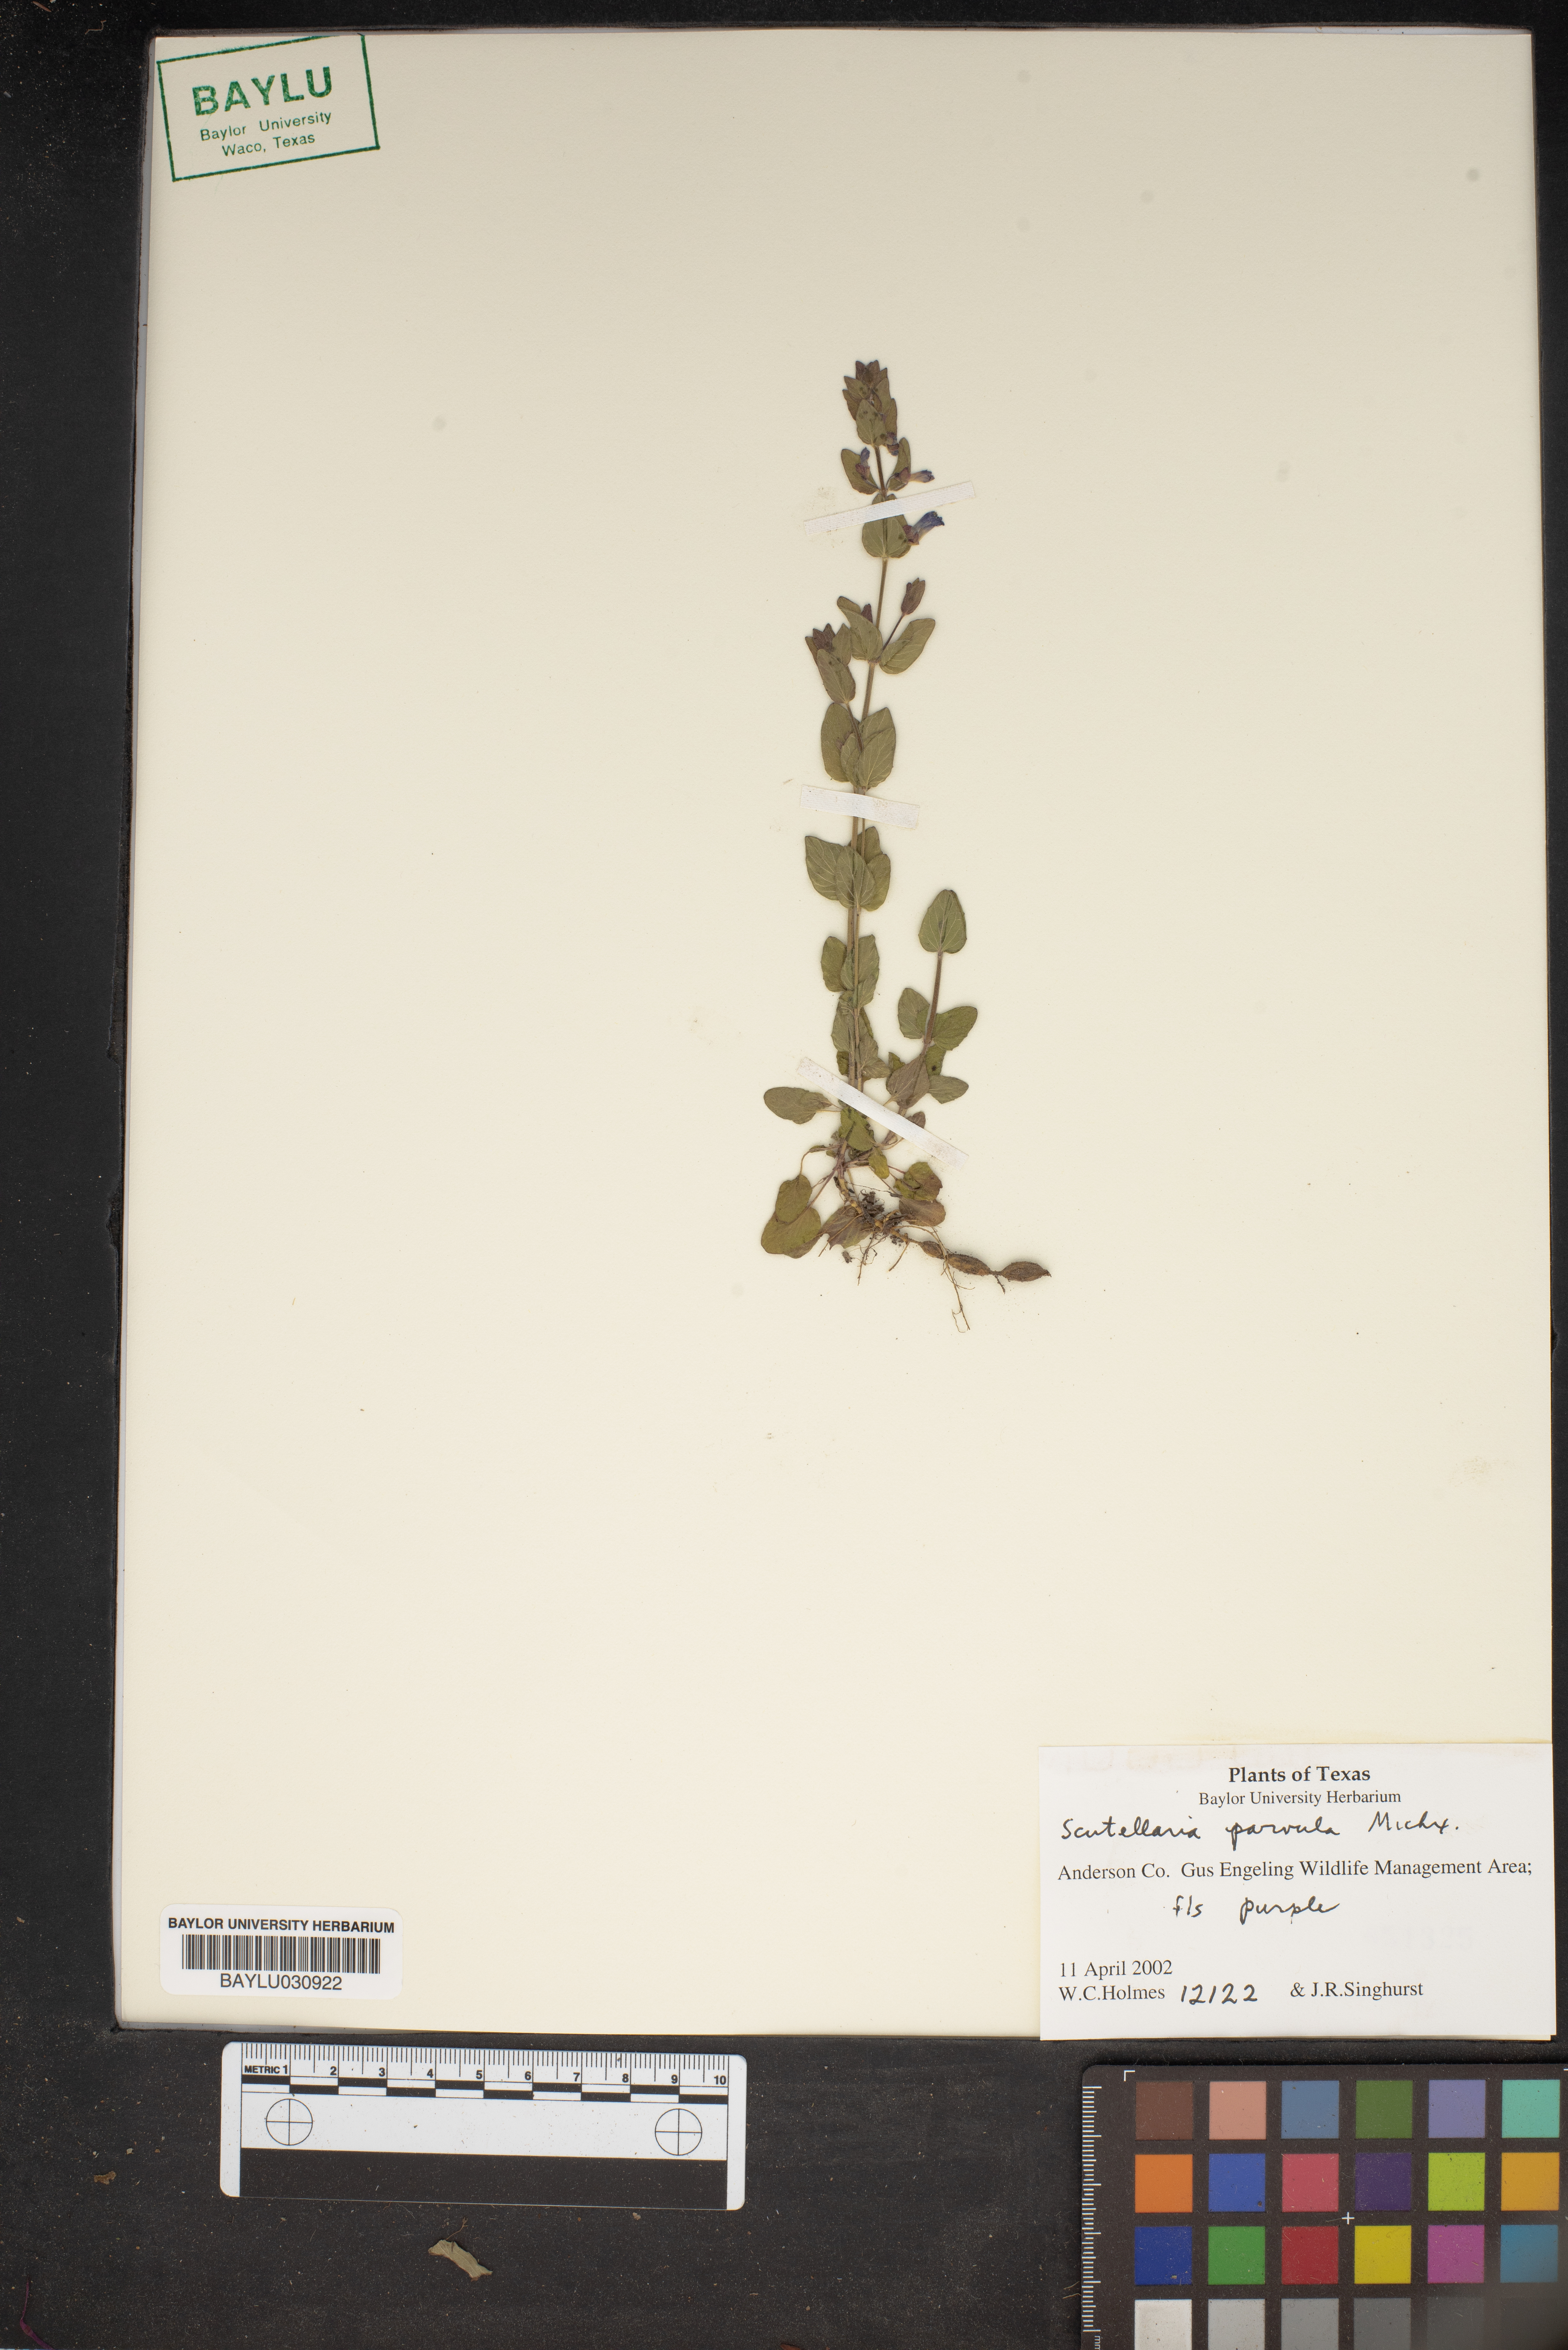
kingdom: Plantae
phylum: Tracheophyta
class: Magnoliopsida
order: Lamiales
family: Lamiaceae
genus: Scutellaria
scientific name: Scutellaria parvula
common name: Little scullcap
